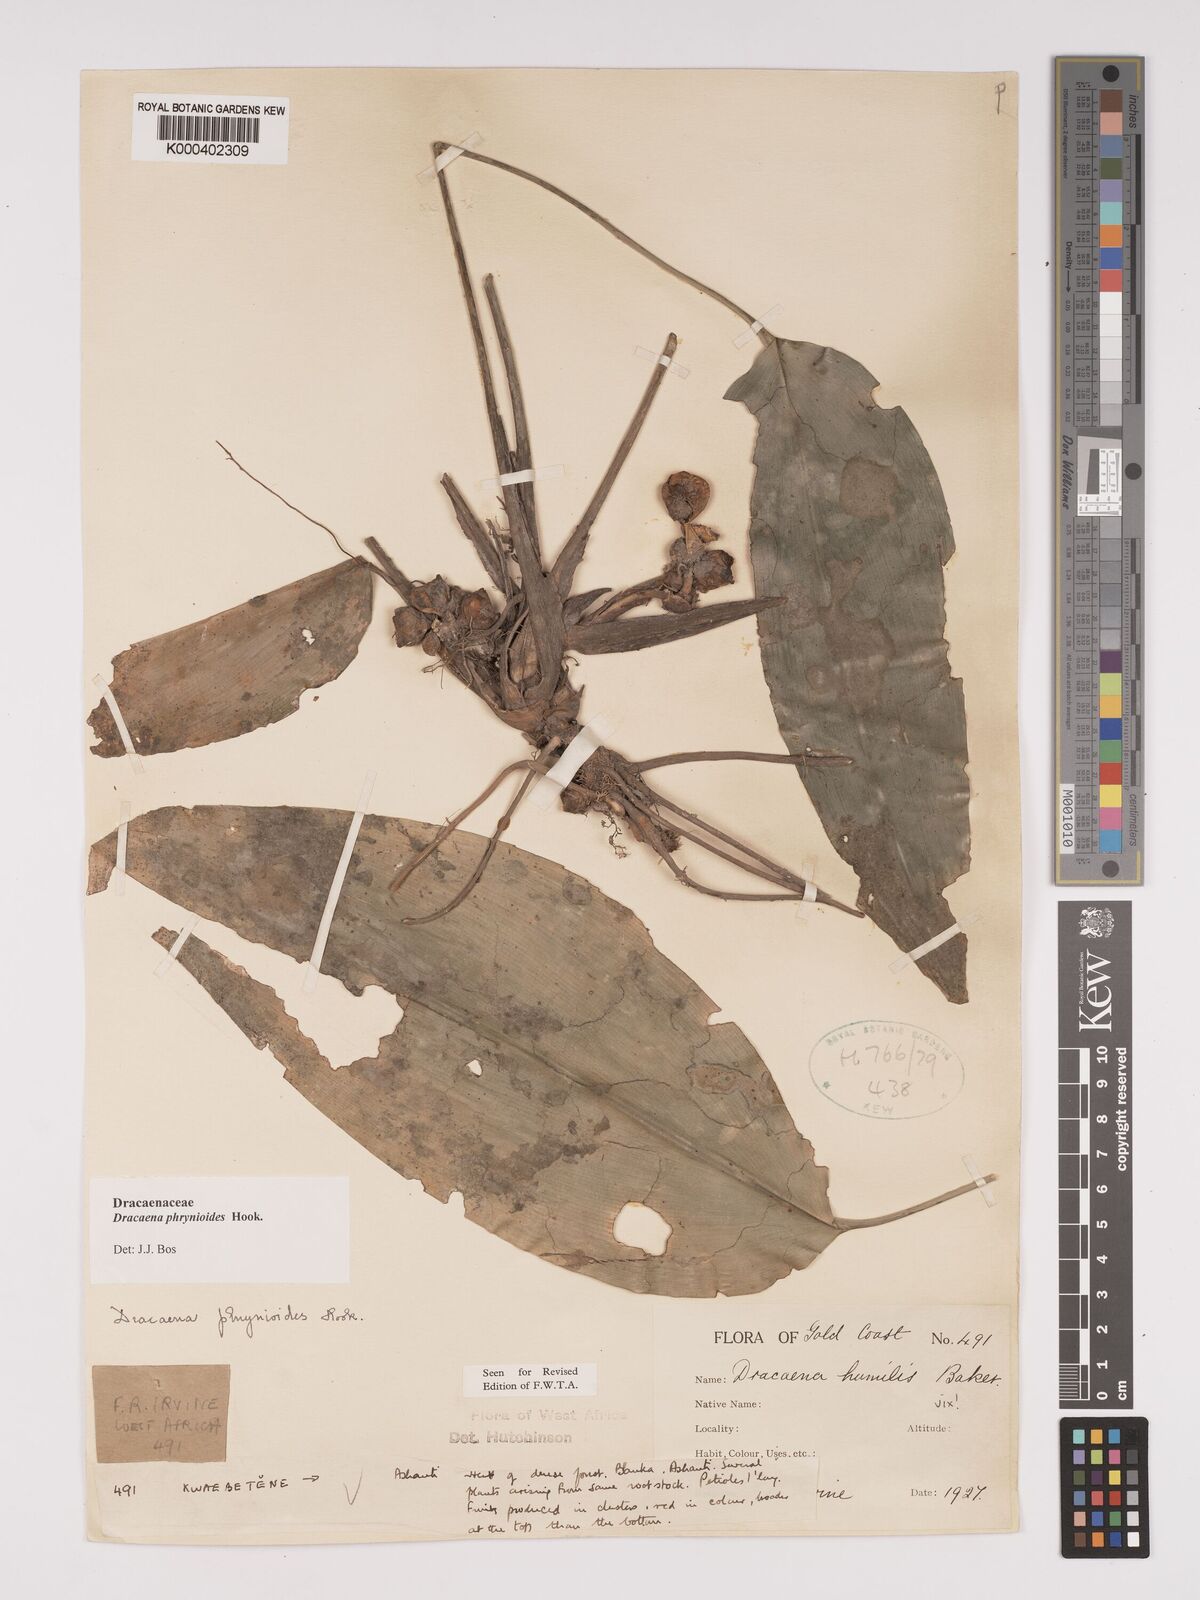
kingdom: Plantae
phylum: Tracheophyta
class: Liliopsida
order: Asparagales
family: Asparagaceae
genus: Dracaena
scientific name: Dracaena phrynioides
